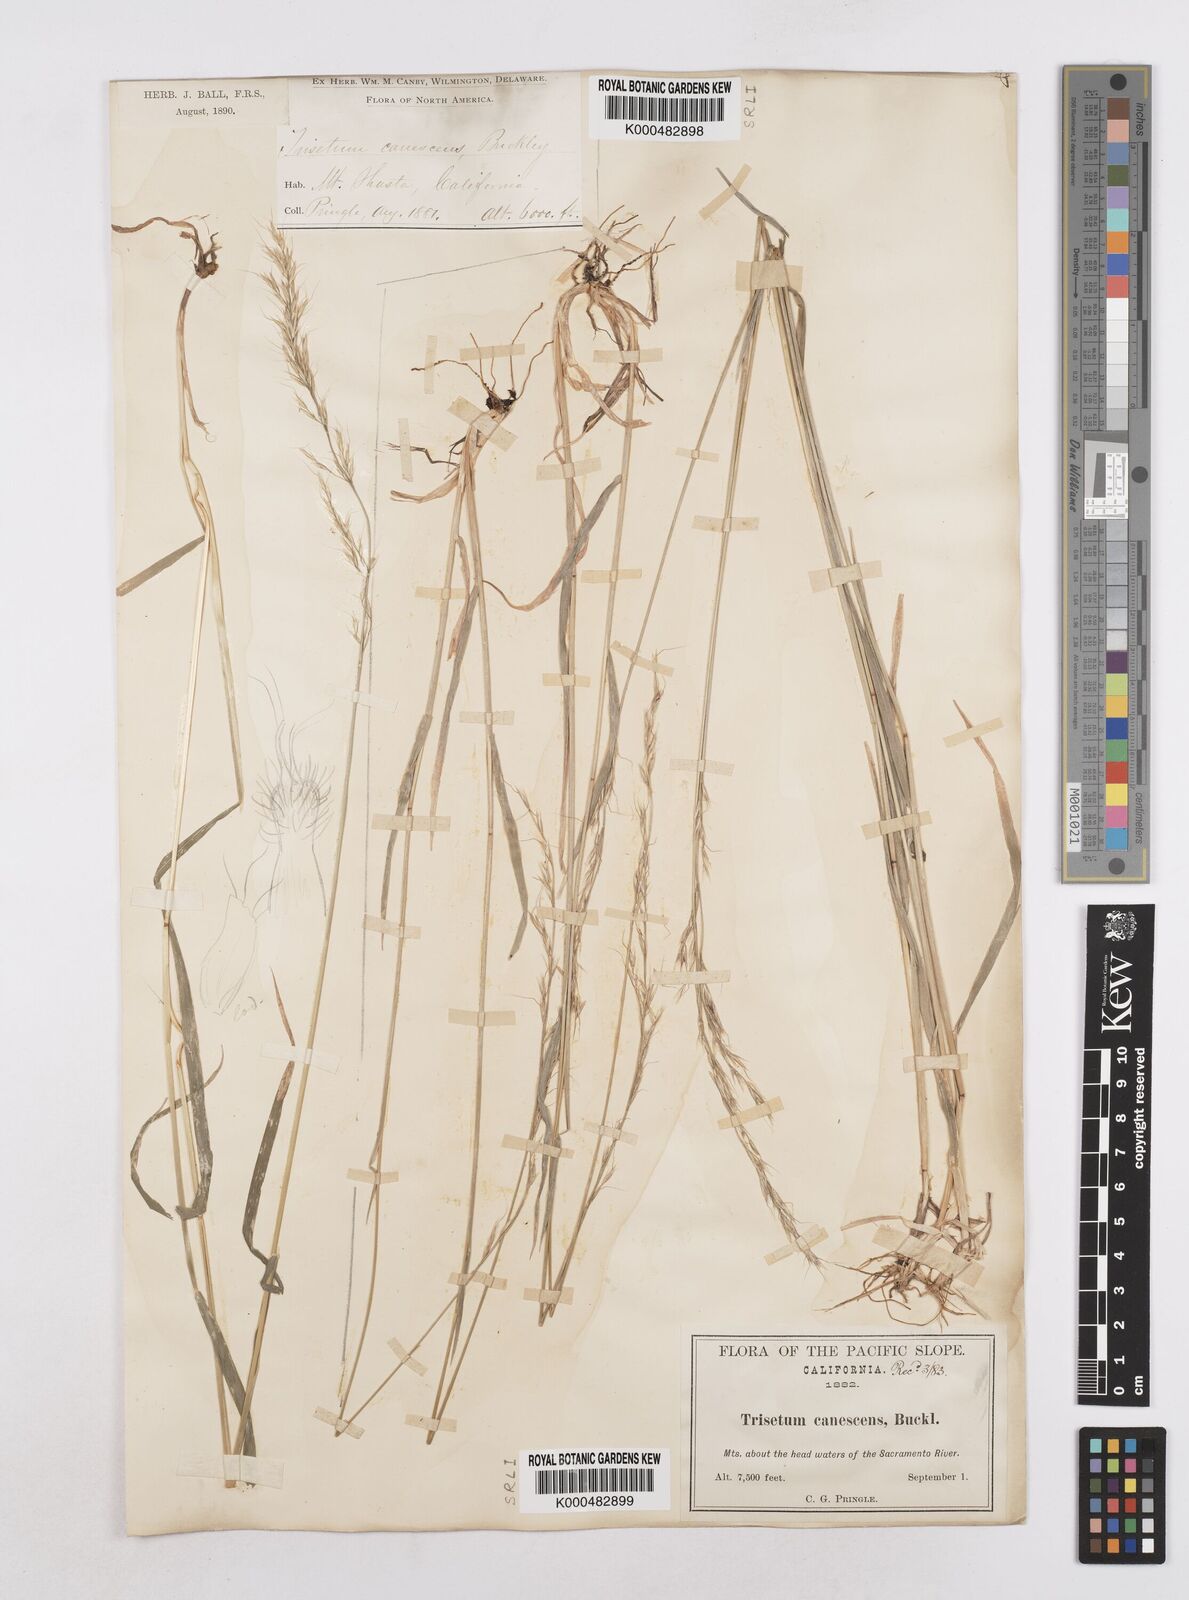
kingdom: Plantae
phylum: Tracheophyta
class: Liliopsida
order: Poales
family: Poaceae
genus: Graphephorum
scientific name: Graphephorum canescens
